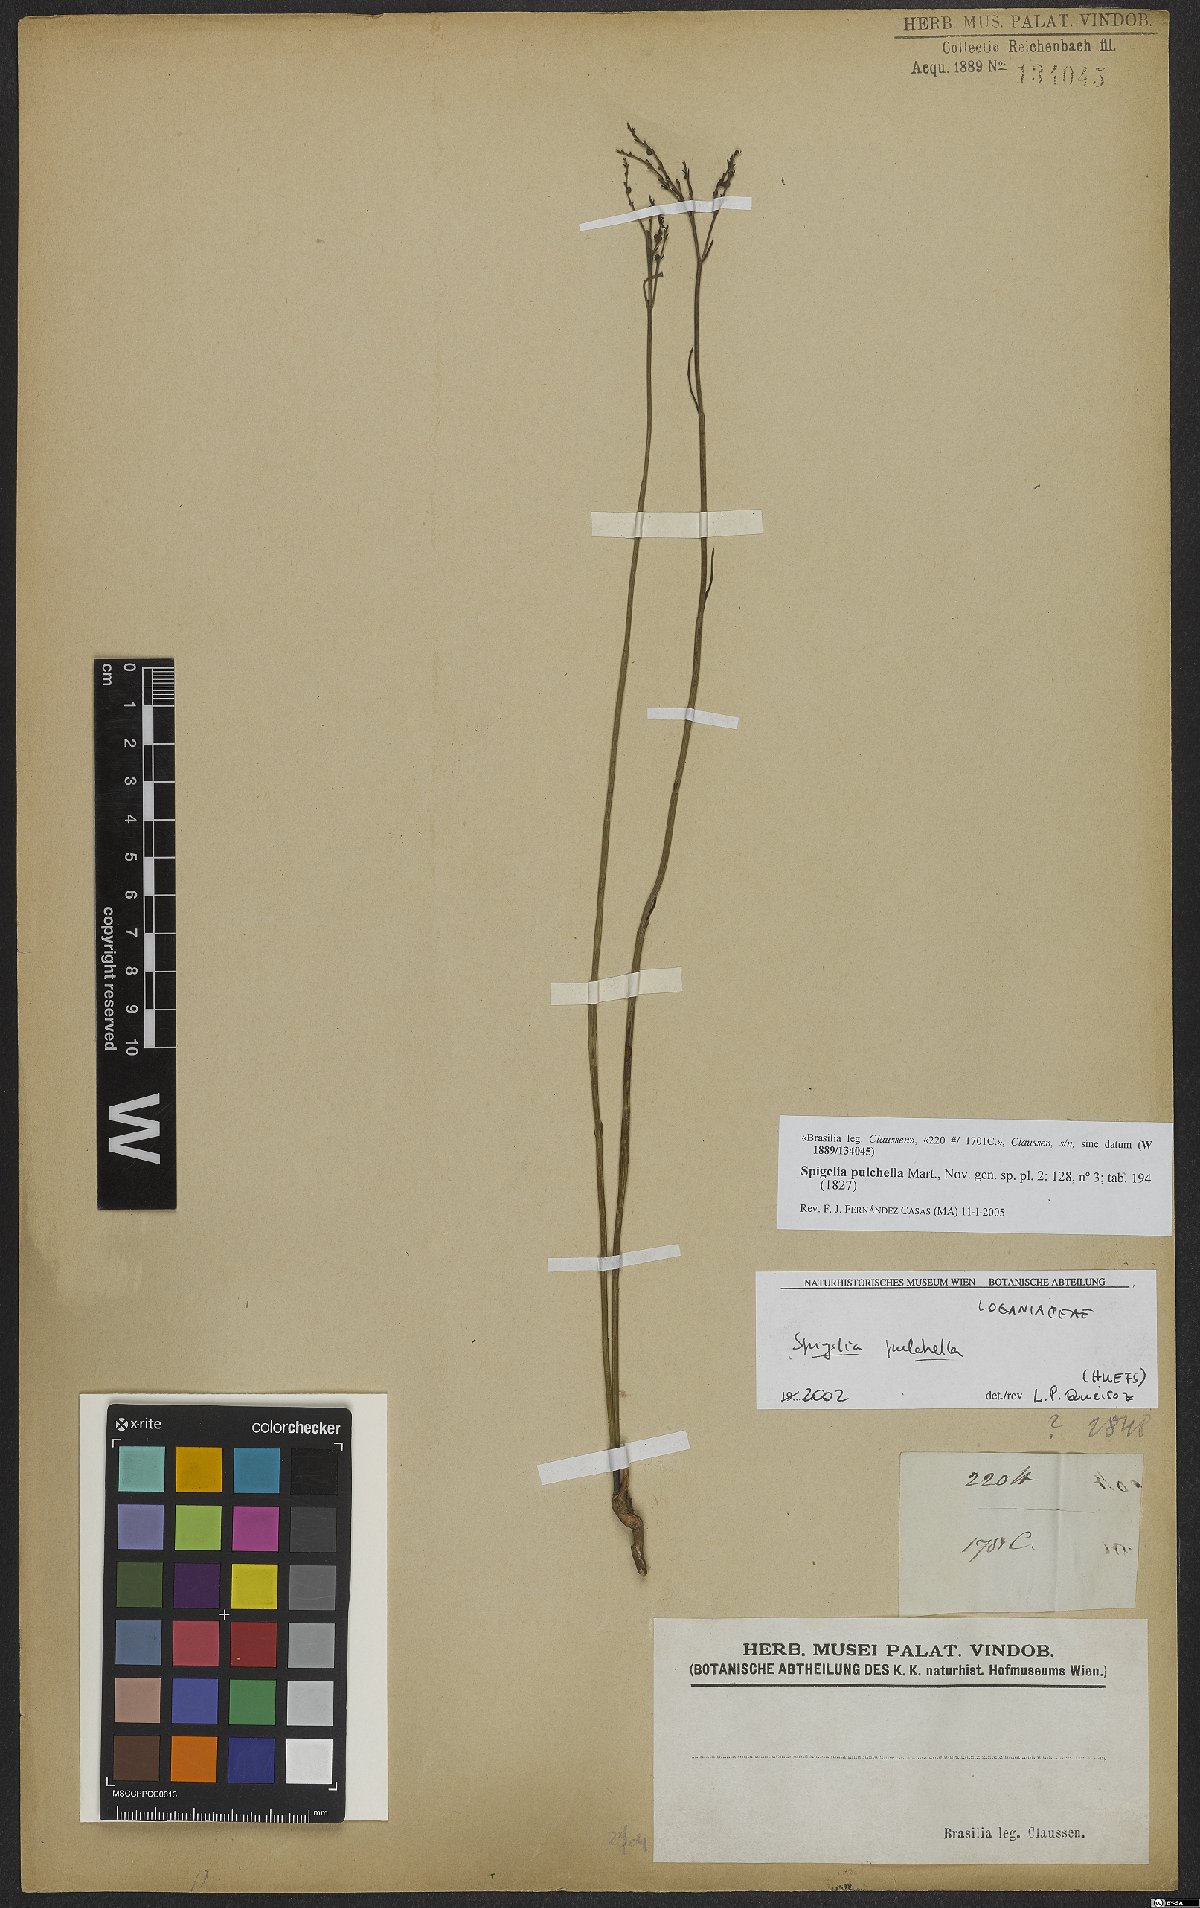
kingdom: Plantae
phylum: Tracheophyta
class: Magnoliopsida
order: Gentianales
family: Loganiaceae
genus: Spigelia
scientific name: Spigelia pulchella
